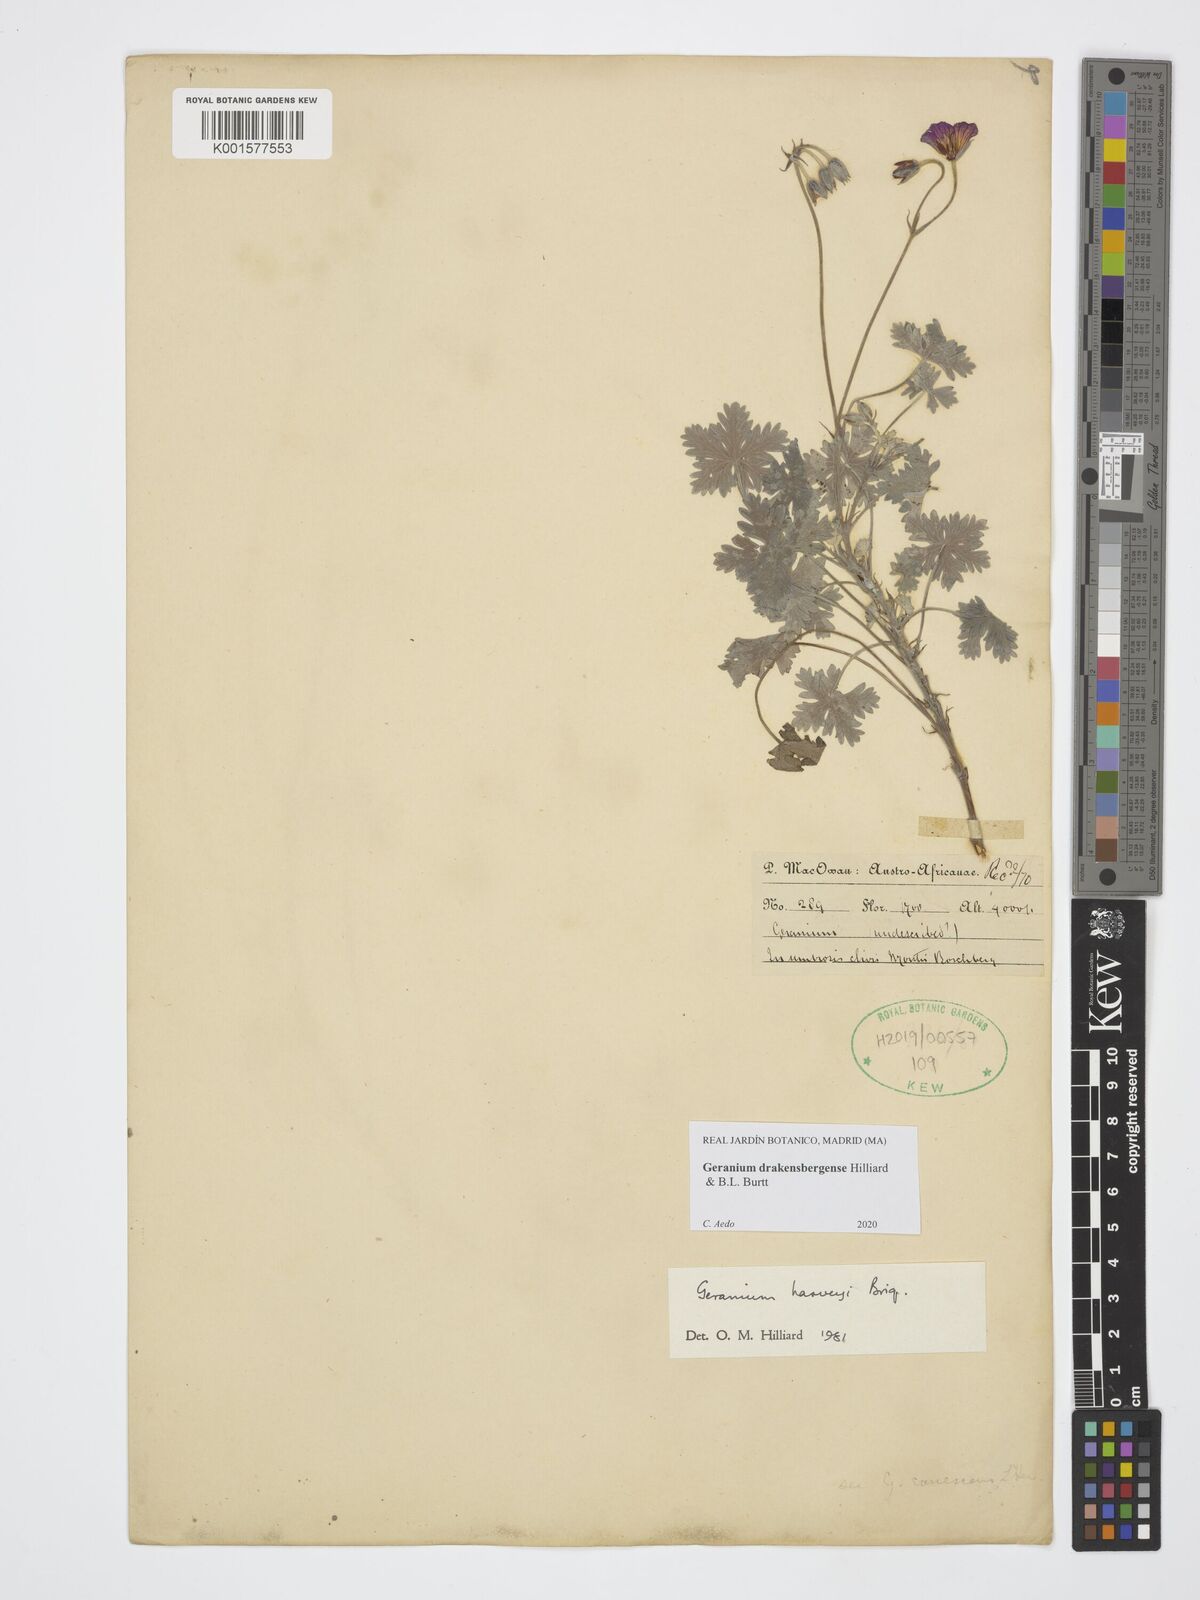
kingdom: Plantae
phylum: Tracheophyta
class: Magnoliopsida
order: Geraniales
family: Geraniaceae
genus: Geranium
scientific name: Geranium drakensbergense
